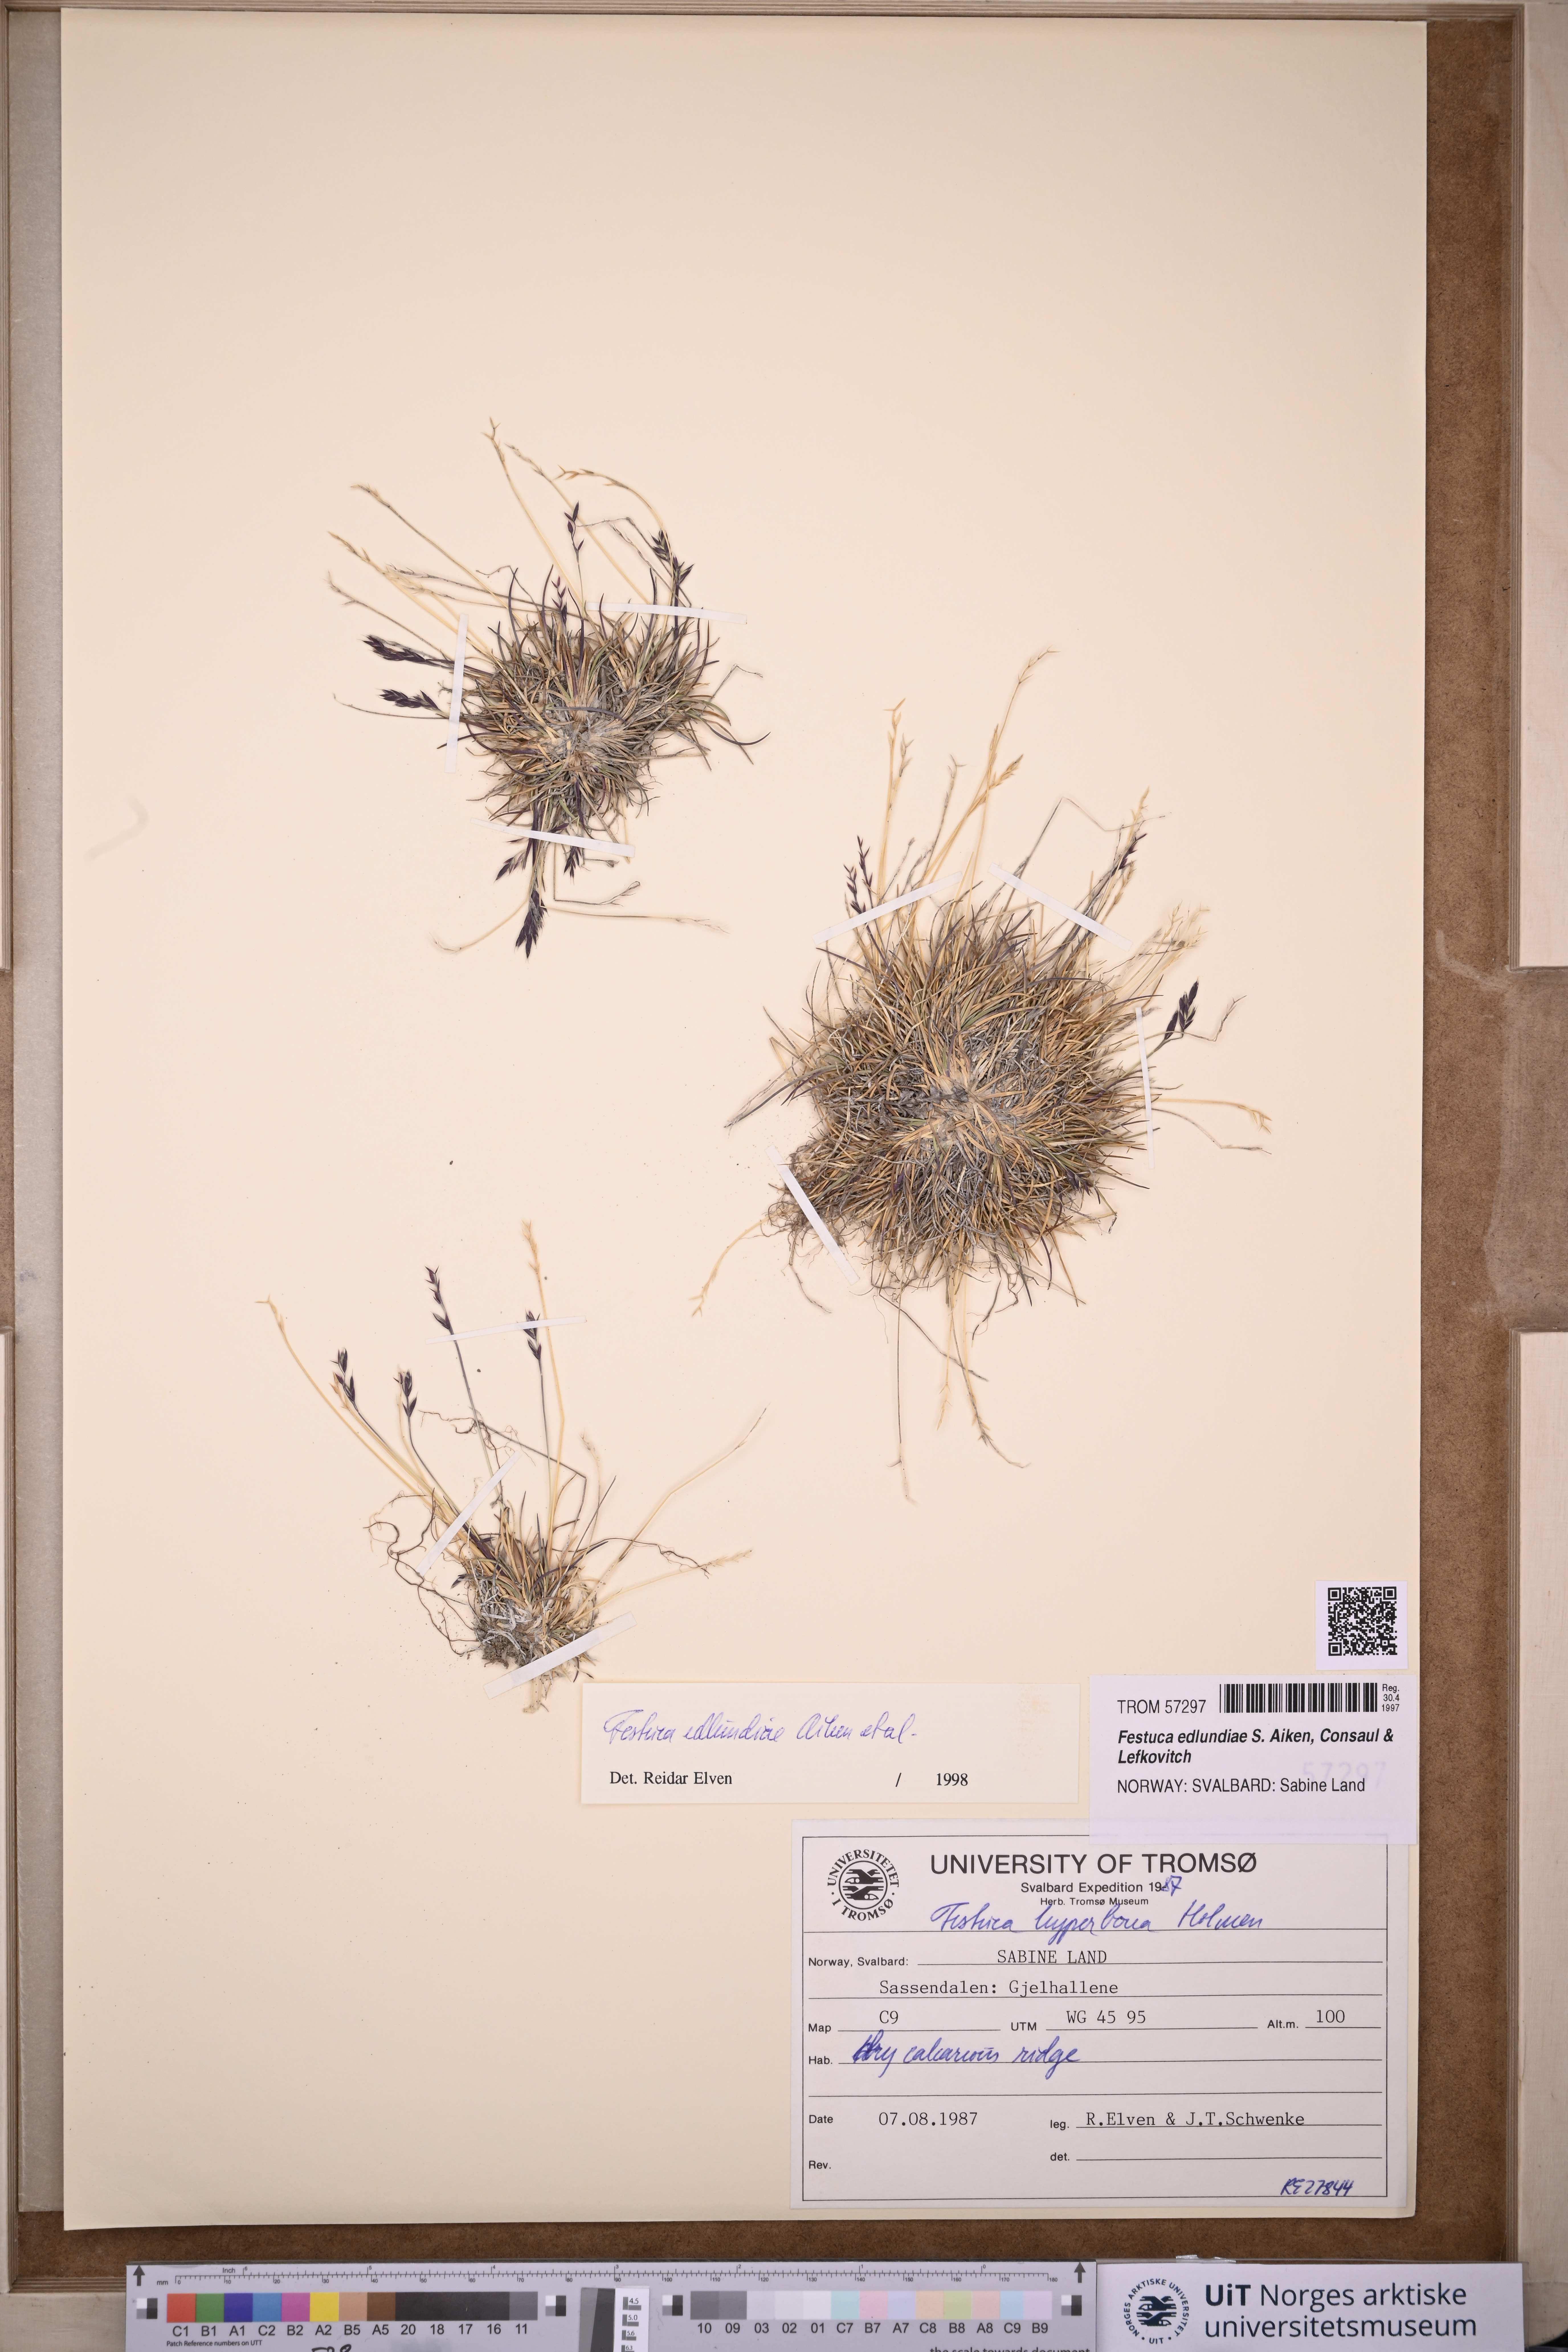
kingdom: Plantae
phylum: Tracheophyta
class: Liliopsida
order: Poales
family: Poaceae
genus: Festuca
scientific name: Festuca edlundiae
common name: Edlund's fescue
